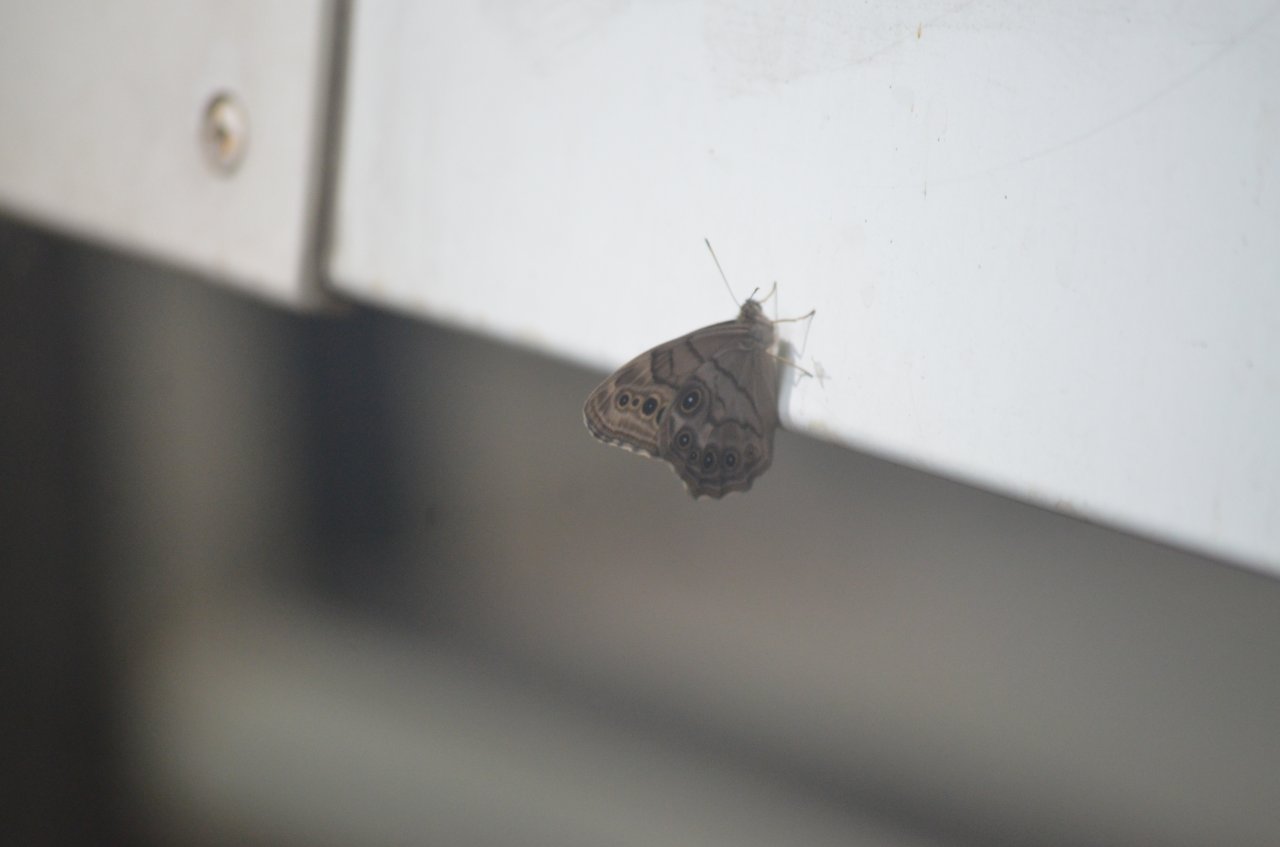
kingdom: Animalia
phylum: Arthropoda
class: Insecta
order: Lepidoptera
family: Nymphalidae
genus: Lethe
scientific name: Lethe anthedon
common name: Northern Pearly-Eye
